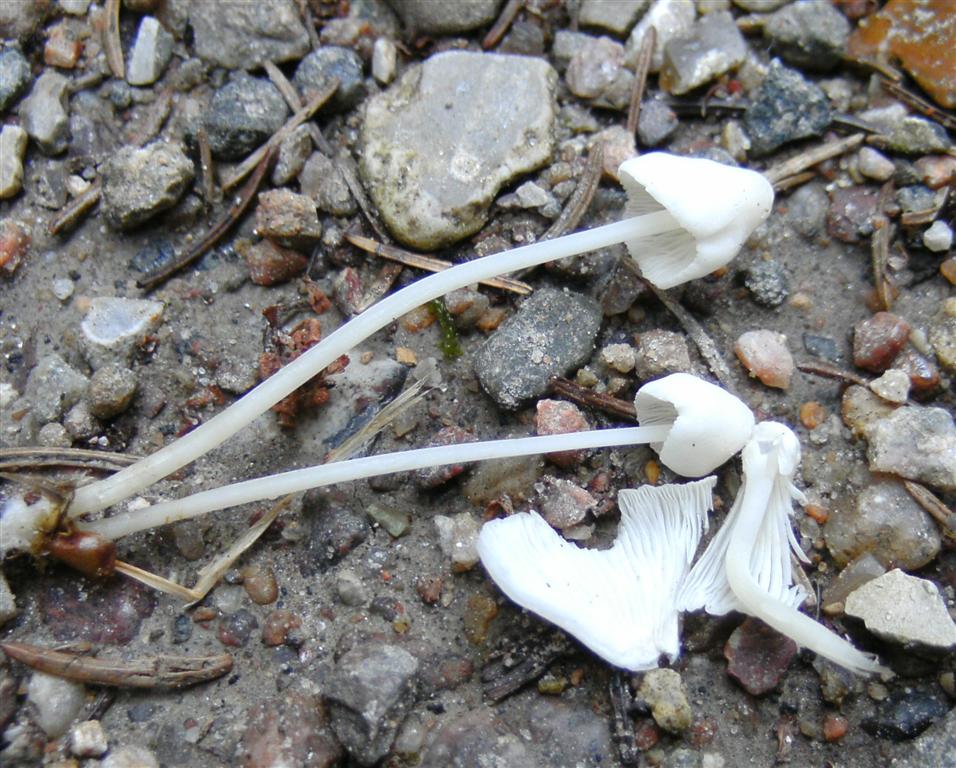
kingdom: Fungi
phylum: Basidiomycota
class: Agaricomycetes
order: Agaricales
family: Mycenaceae
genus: Hemimycena
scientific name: Hemimycena cucullata
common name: tætbladet huesvamp
